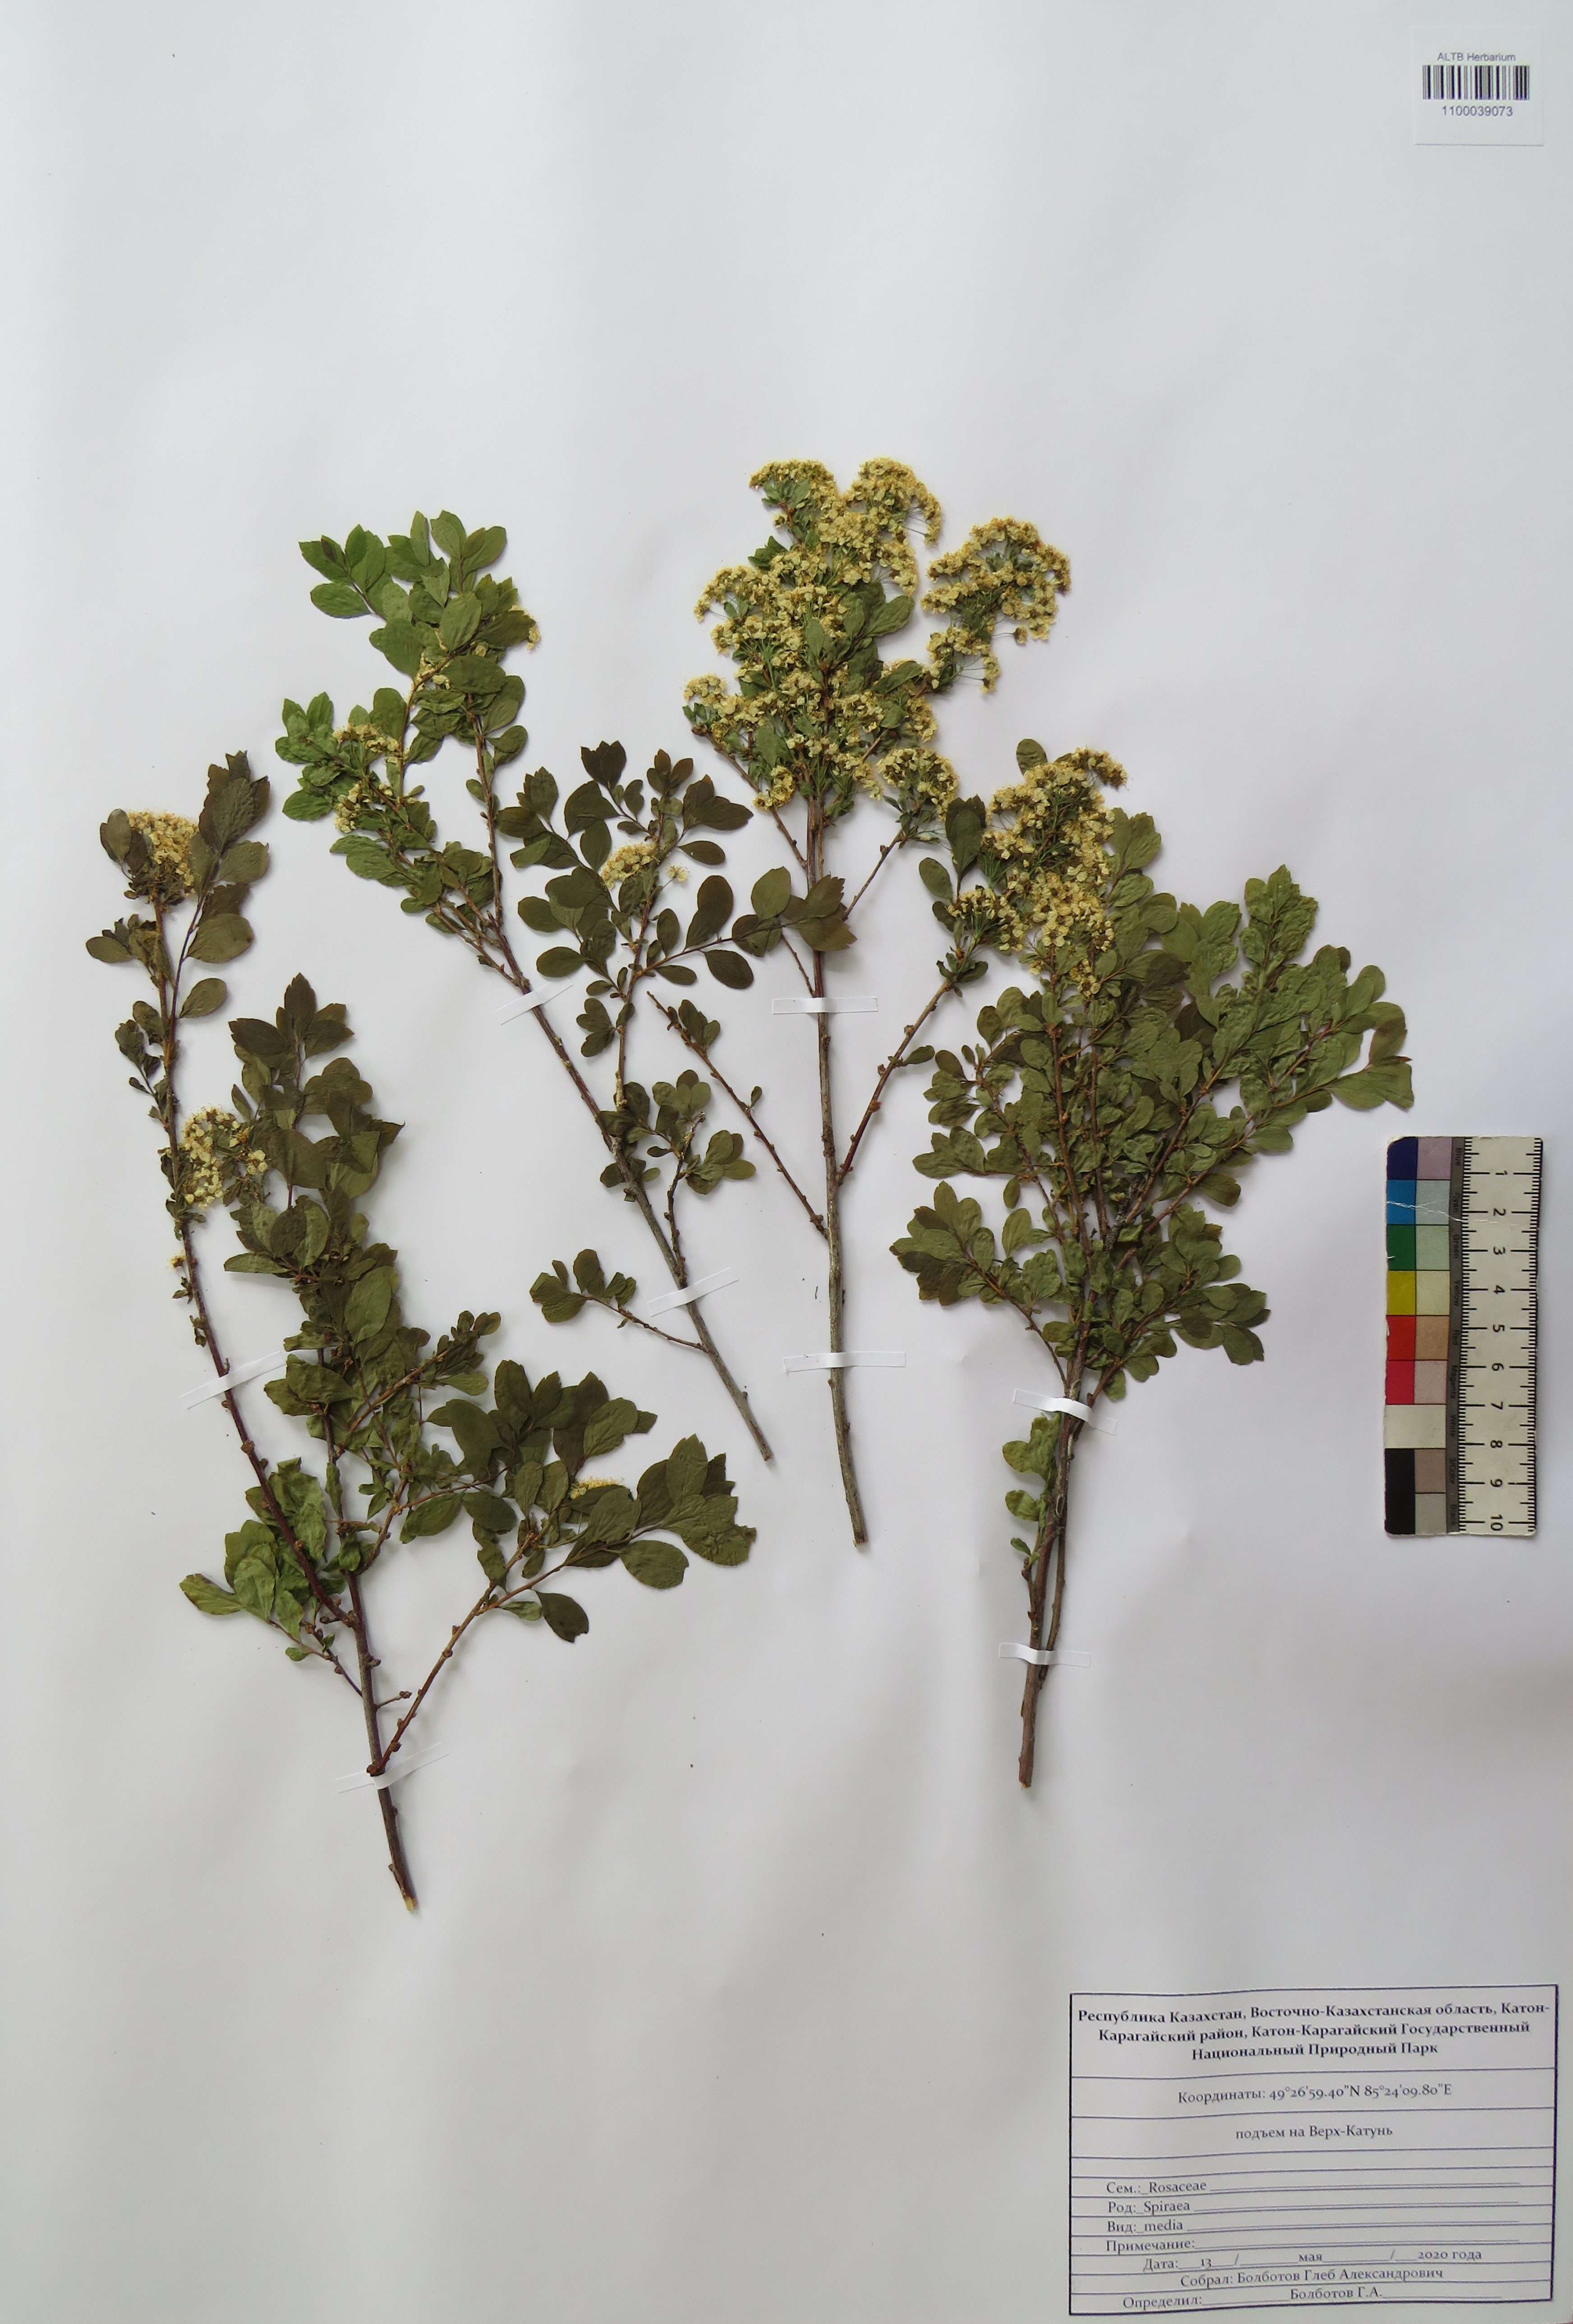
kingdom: Plantae
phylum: Tracheophyta
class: Magnoliopsida
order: Rosales
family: Rosaceae
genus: Spiraea
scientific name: Spiraea media
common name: Russian spiraea
